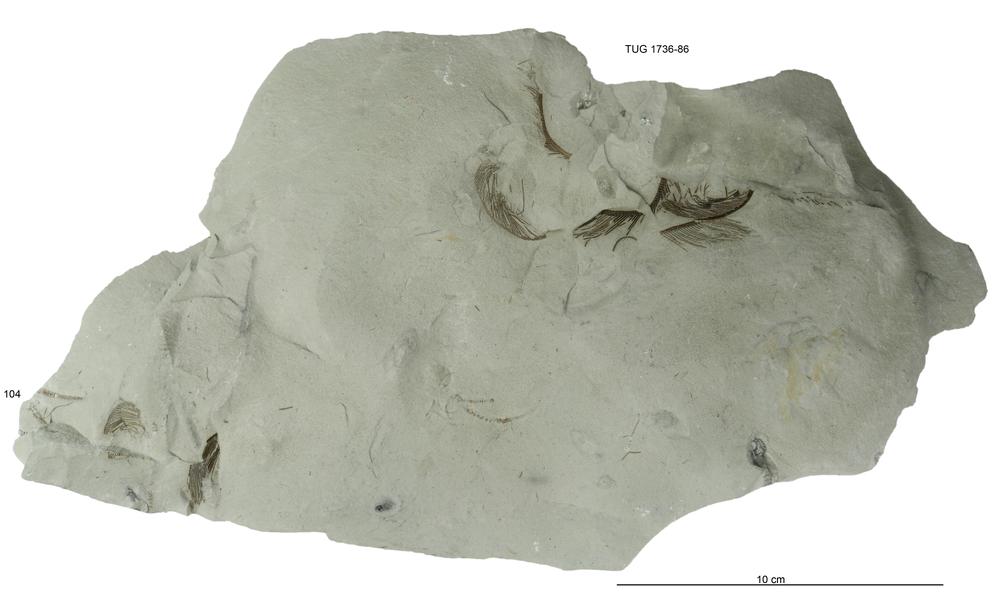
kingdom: Animalia
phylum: Echinodermata
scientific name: Echinodermata
